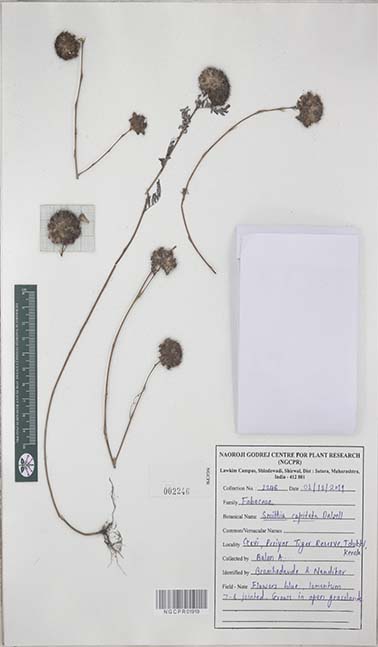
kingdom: Plantae
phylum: Tracheophyta
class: Magnoliopsida
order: Fabales
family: Fabaceae
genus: Smithia
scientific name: Smithia capitata
